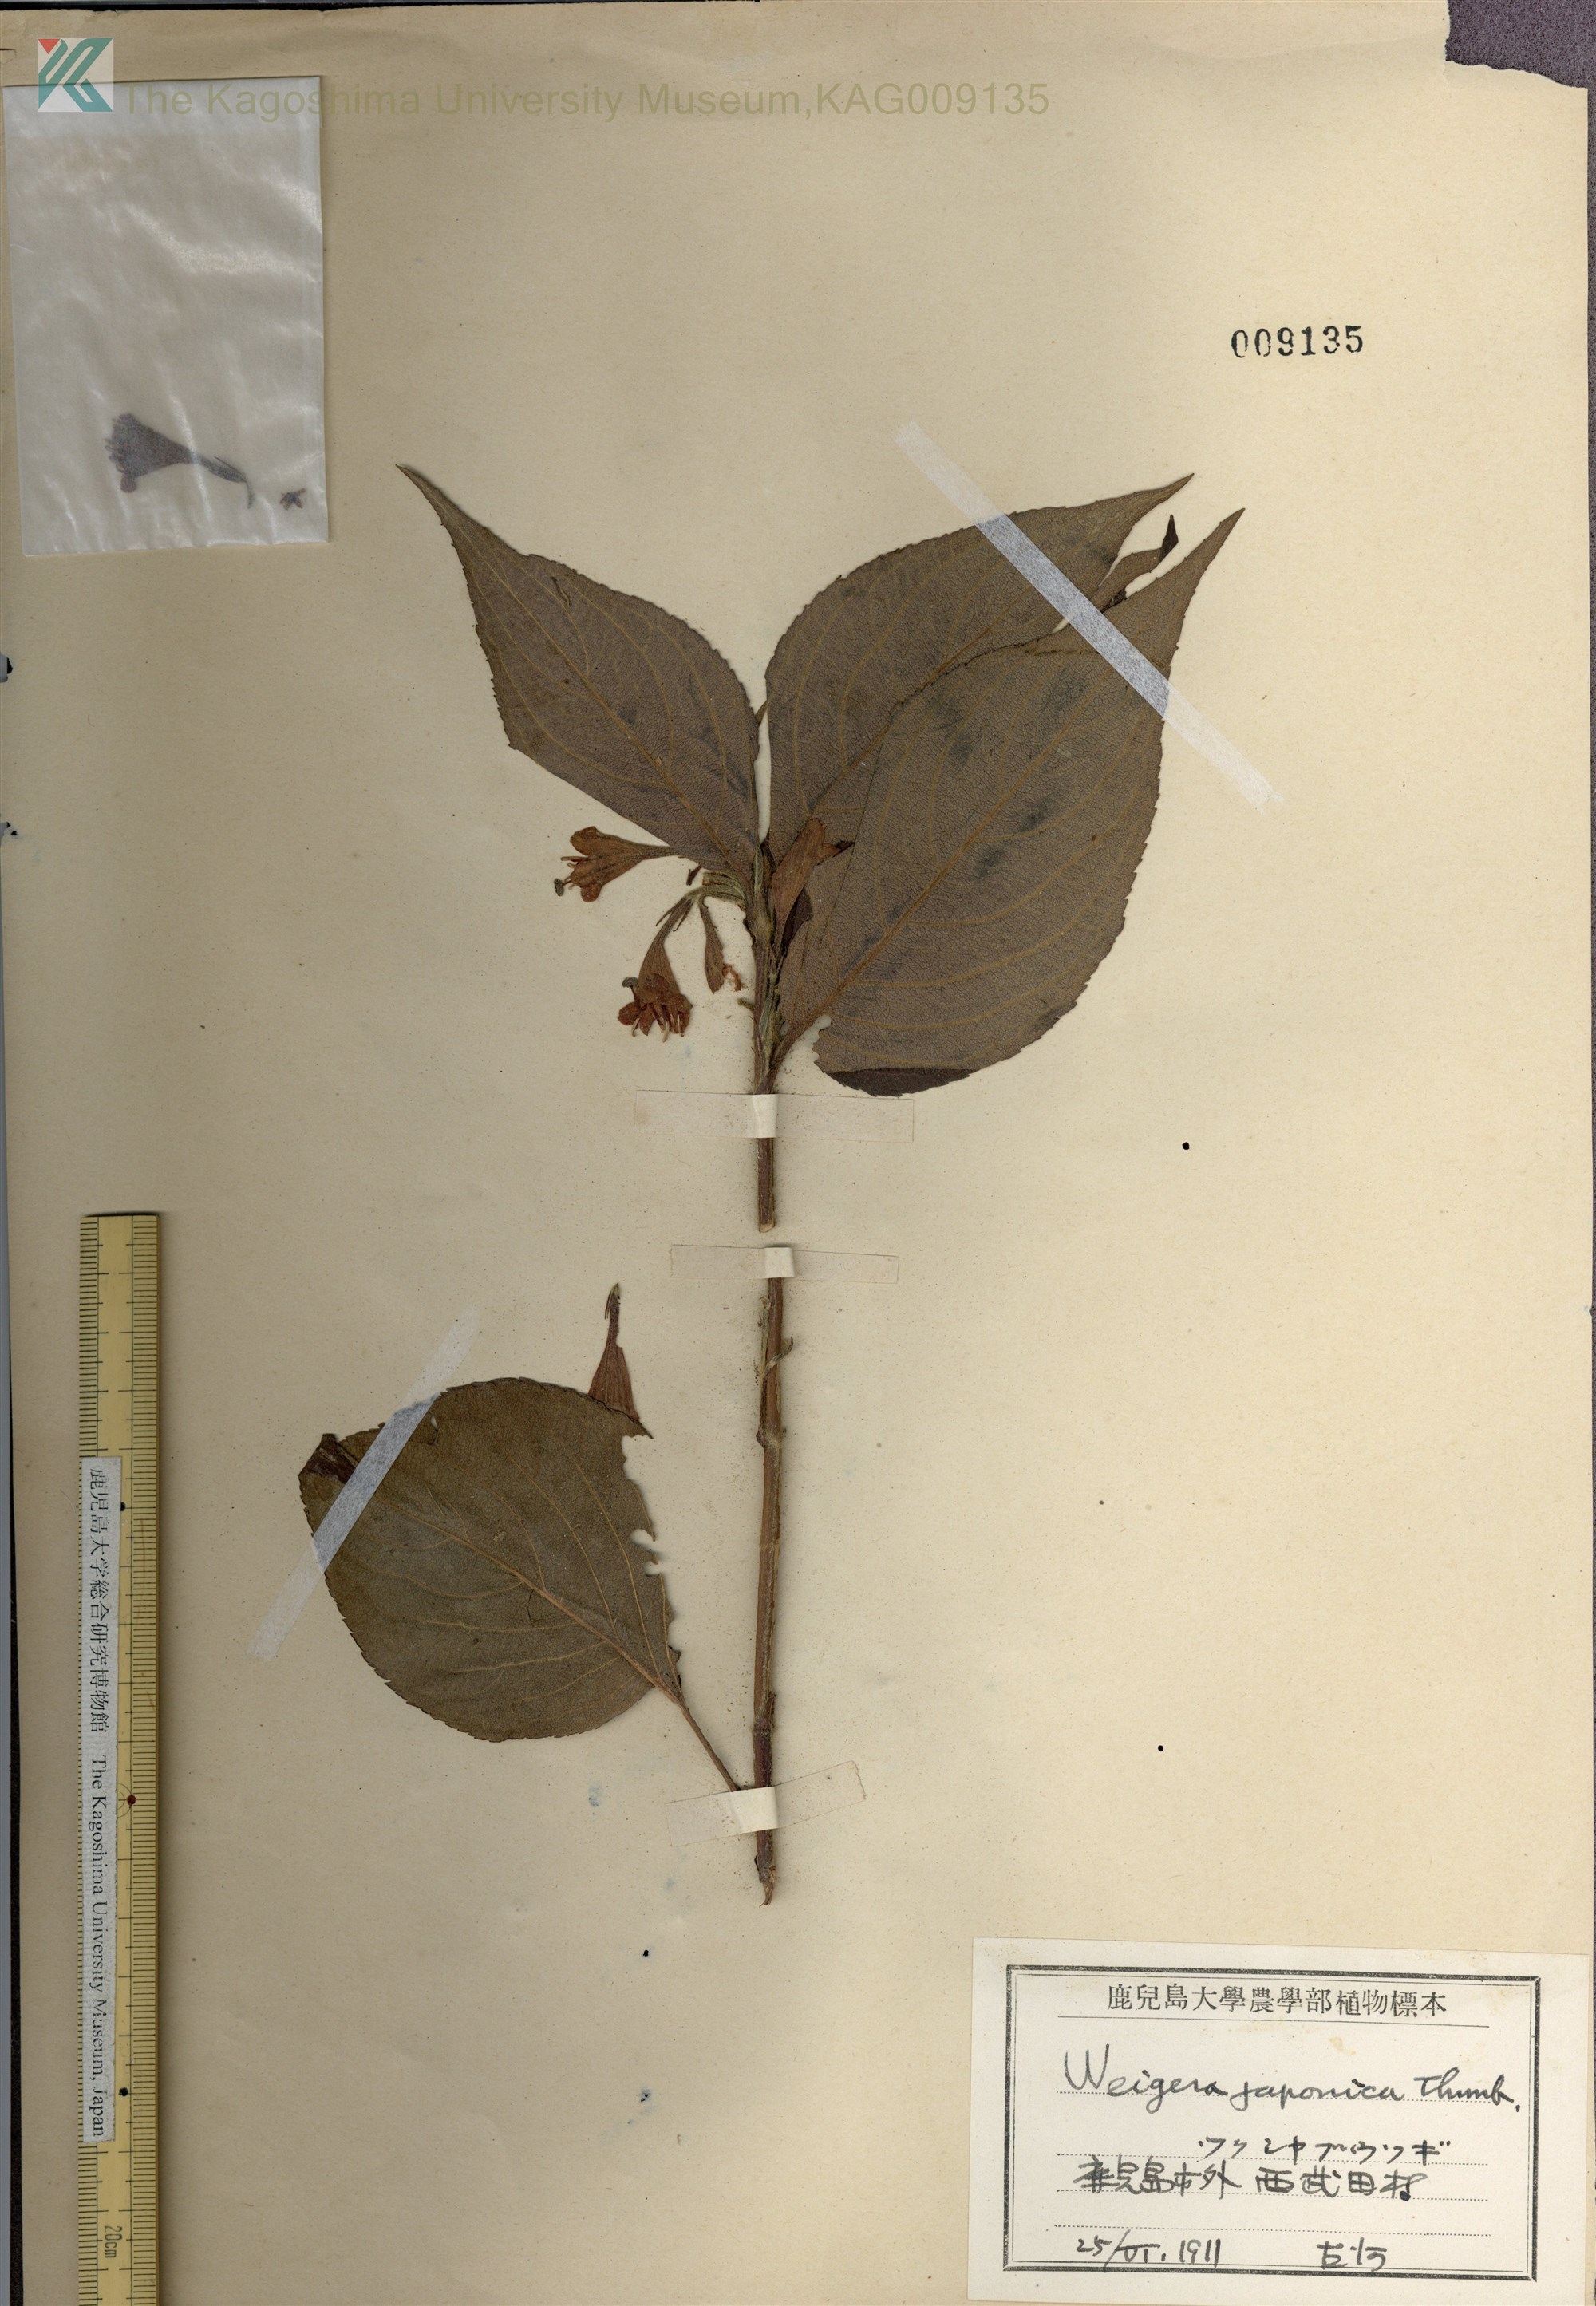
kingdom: Plantae
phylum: Tracheophyta
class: Magnoliopsida
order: Dipsacales
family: Caprifoliaceae
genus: Weigela
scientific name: Weigela japonica
